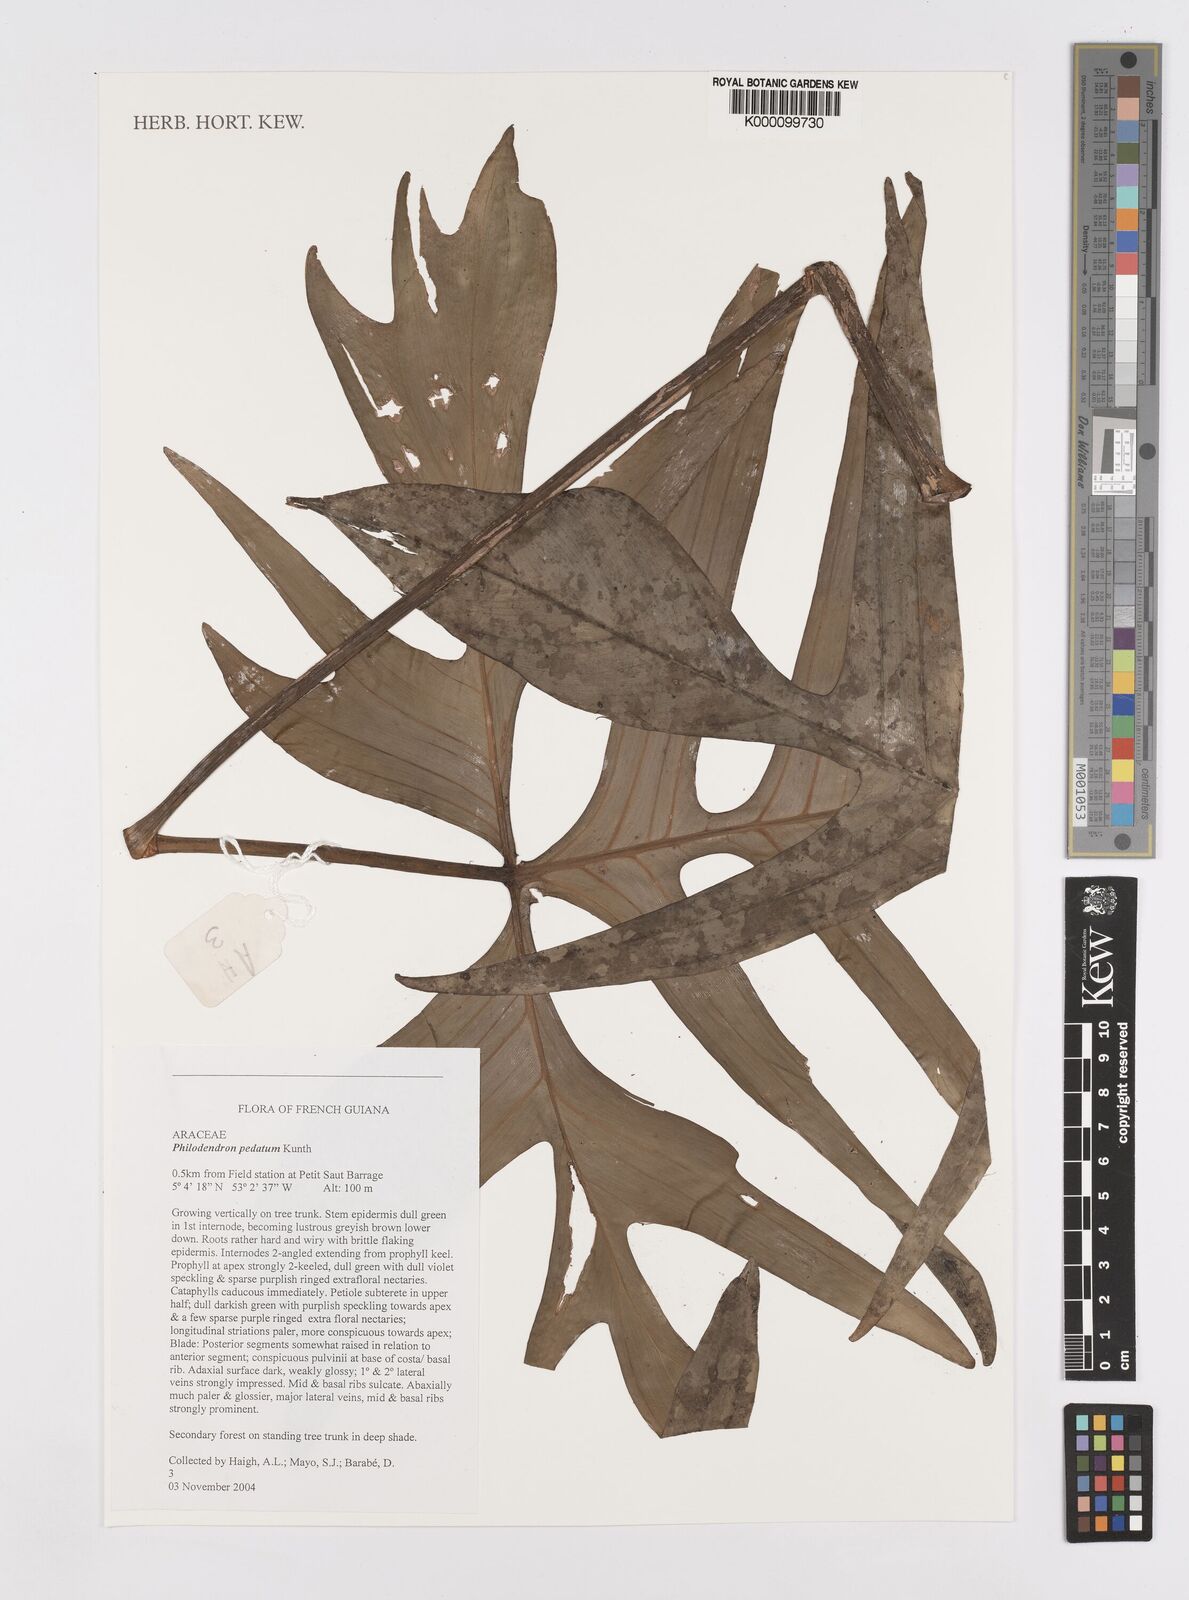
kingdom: Plantae
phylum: Tracheophyta
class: Liliopsida
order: Alismatales
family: Araceae
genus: Philodendron
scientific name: Philodendron pedatum
